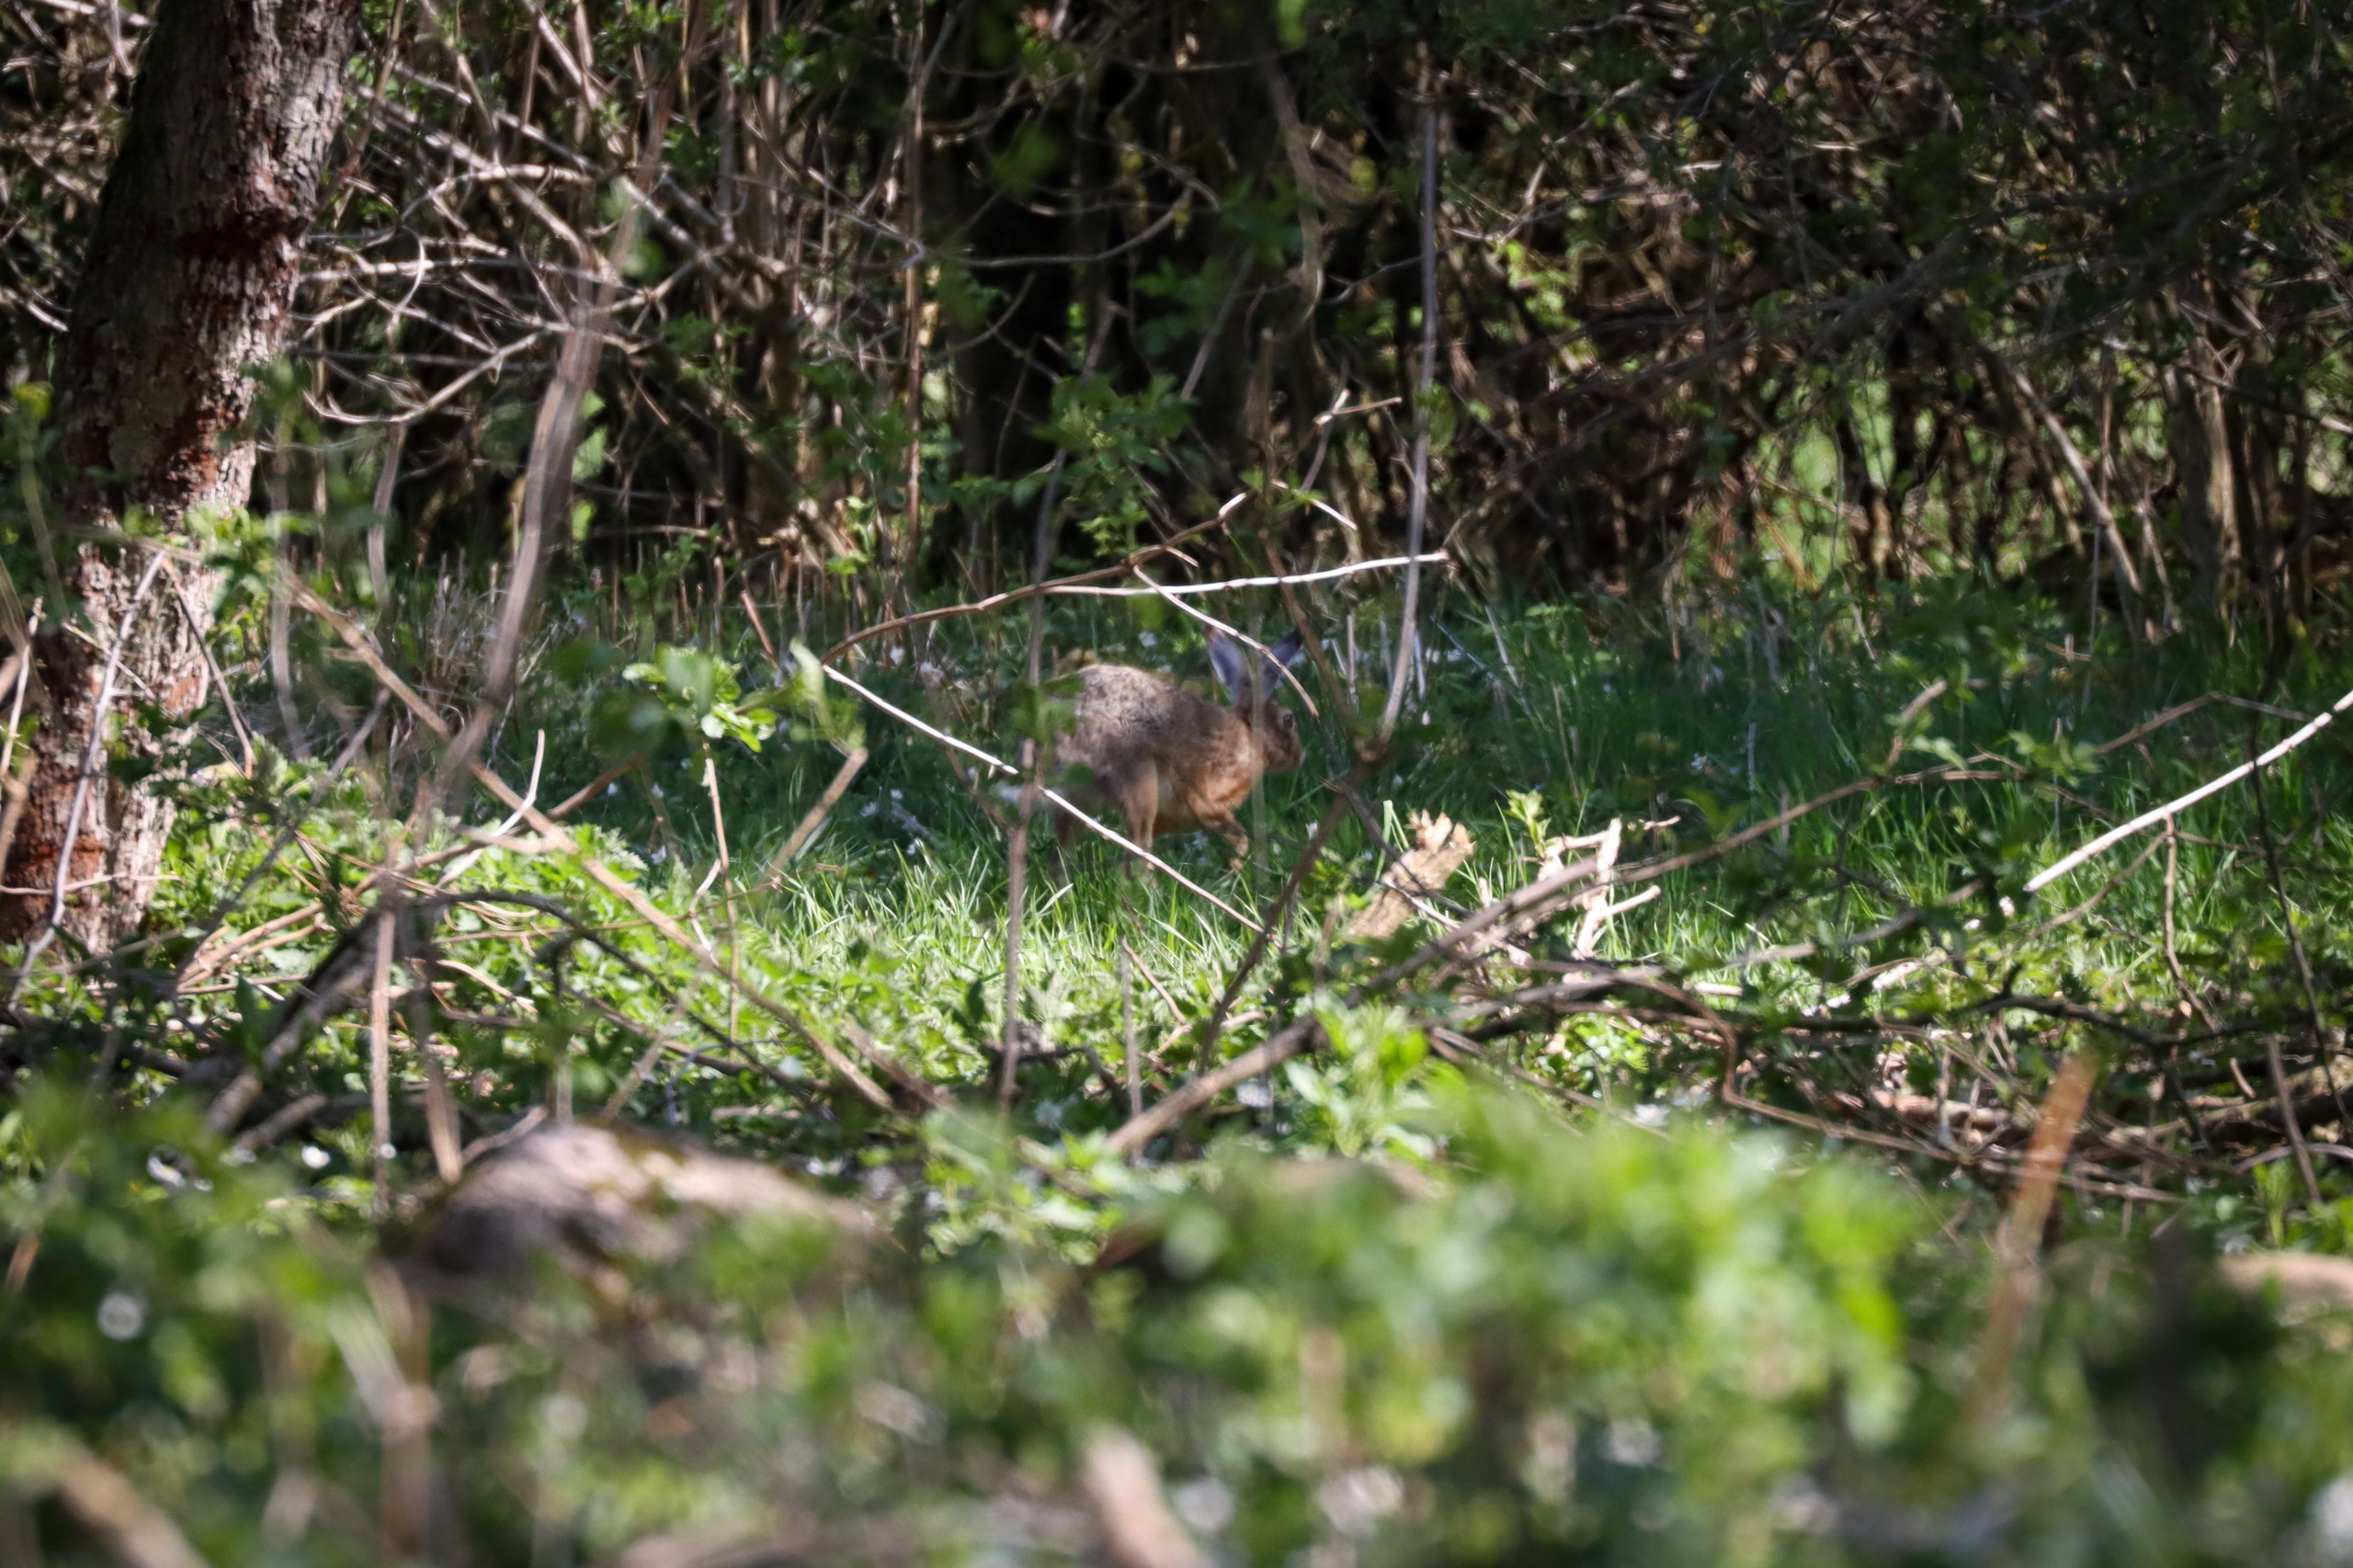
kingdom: Animalia
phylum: Chordata
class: Mammalia
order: Lagomorpha
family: Leporidae
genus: Lepus
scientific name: Lepus europaeus
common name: Hare
